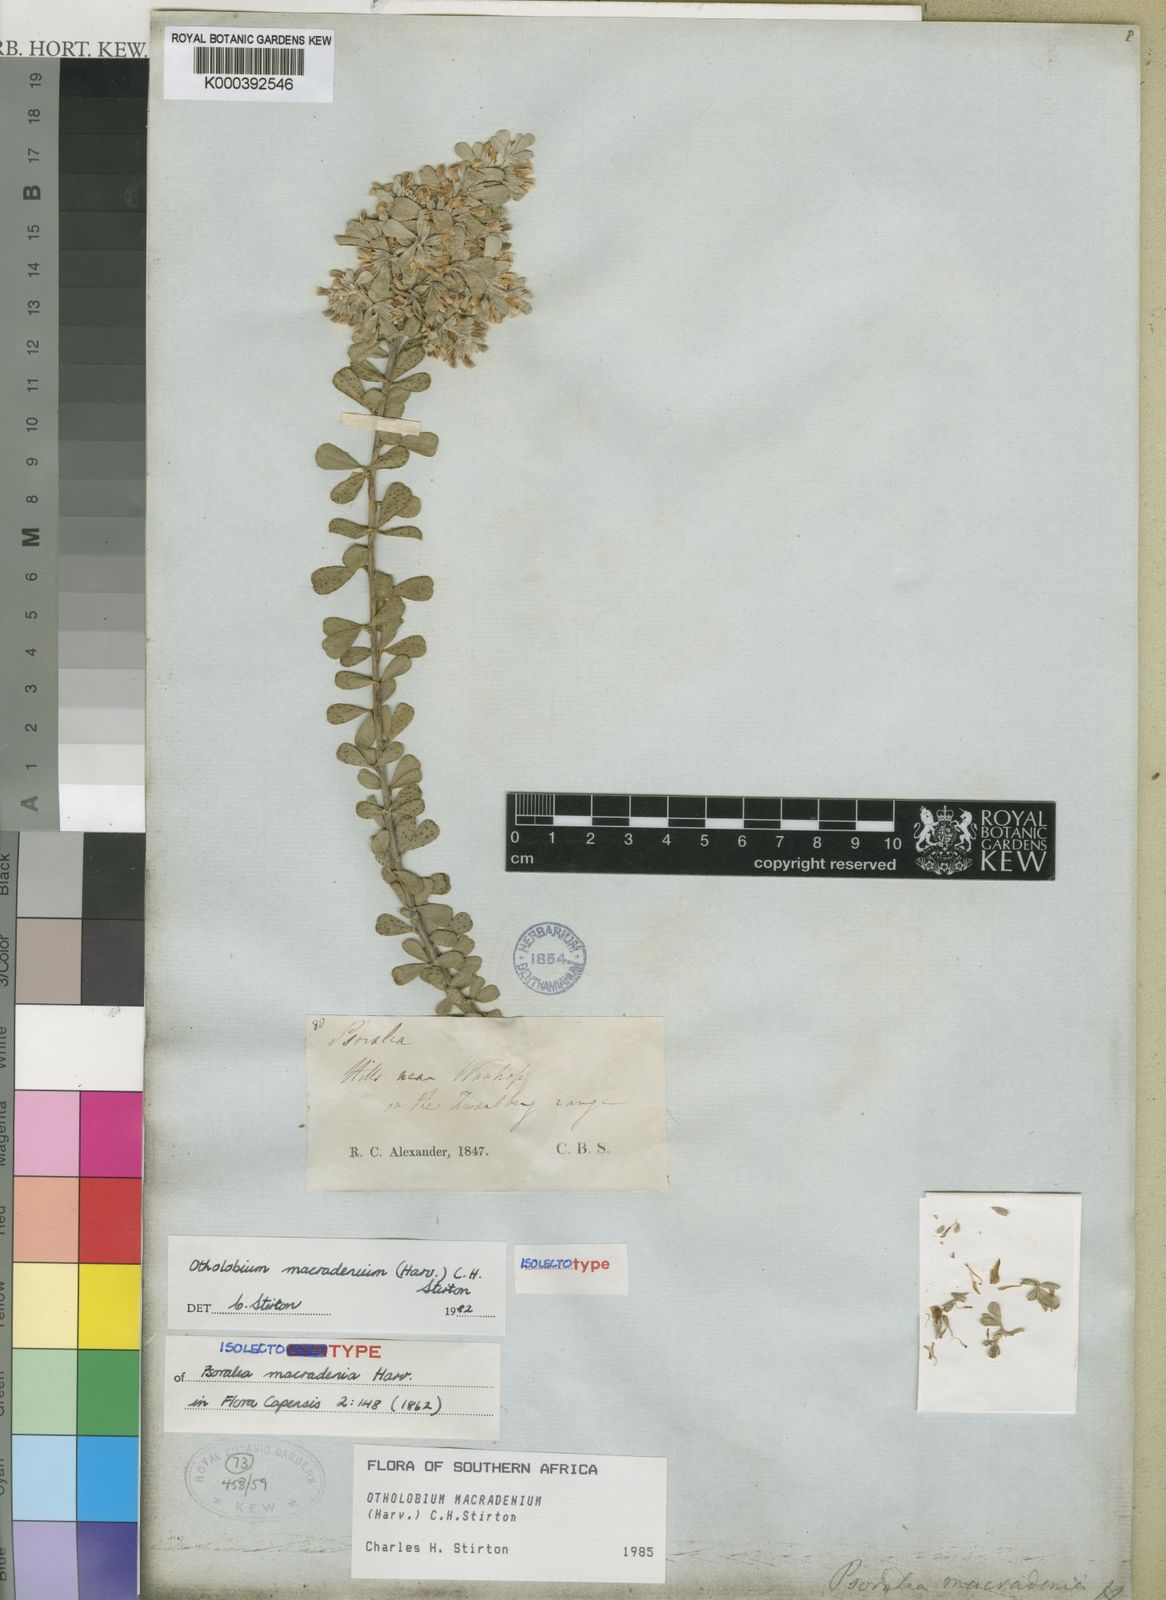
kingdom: Plantae
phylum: Tracheophyta
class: Magnoliopsida
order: Fabales
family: Fabaceae
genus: Psoralea
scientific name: Psoralea velutina
